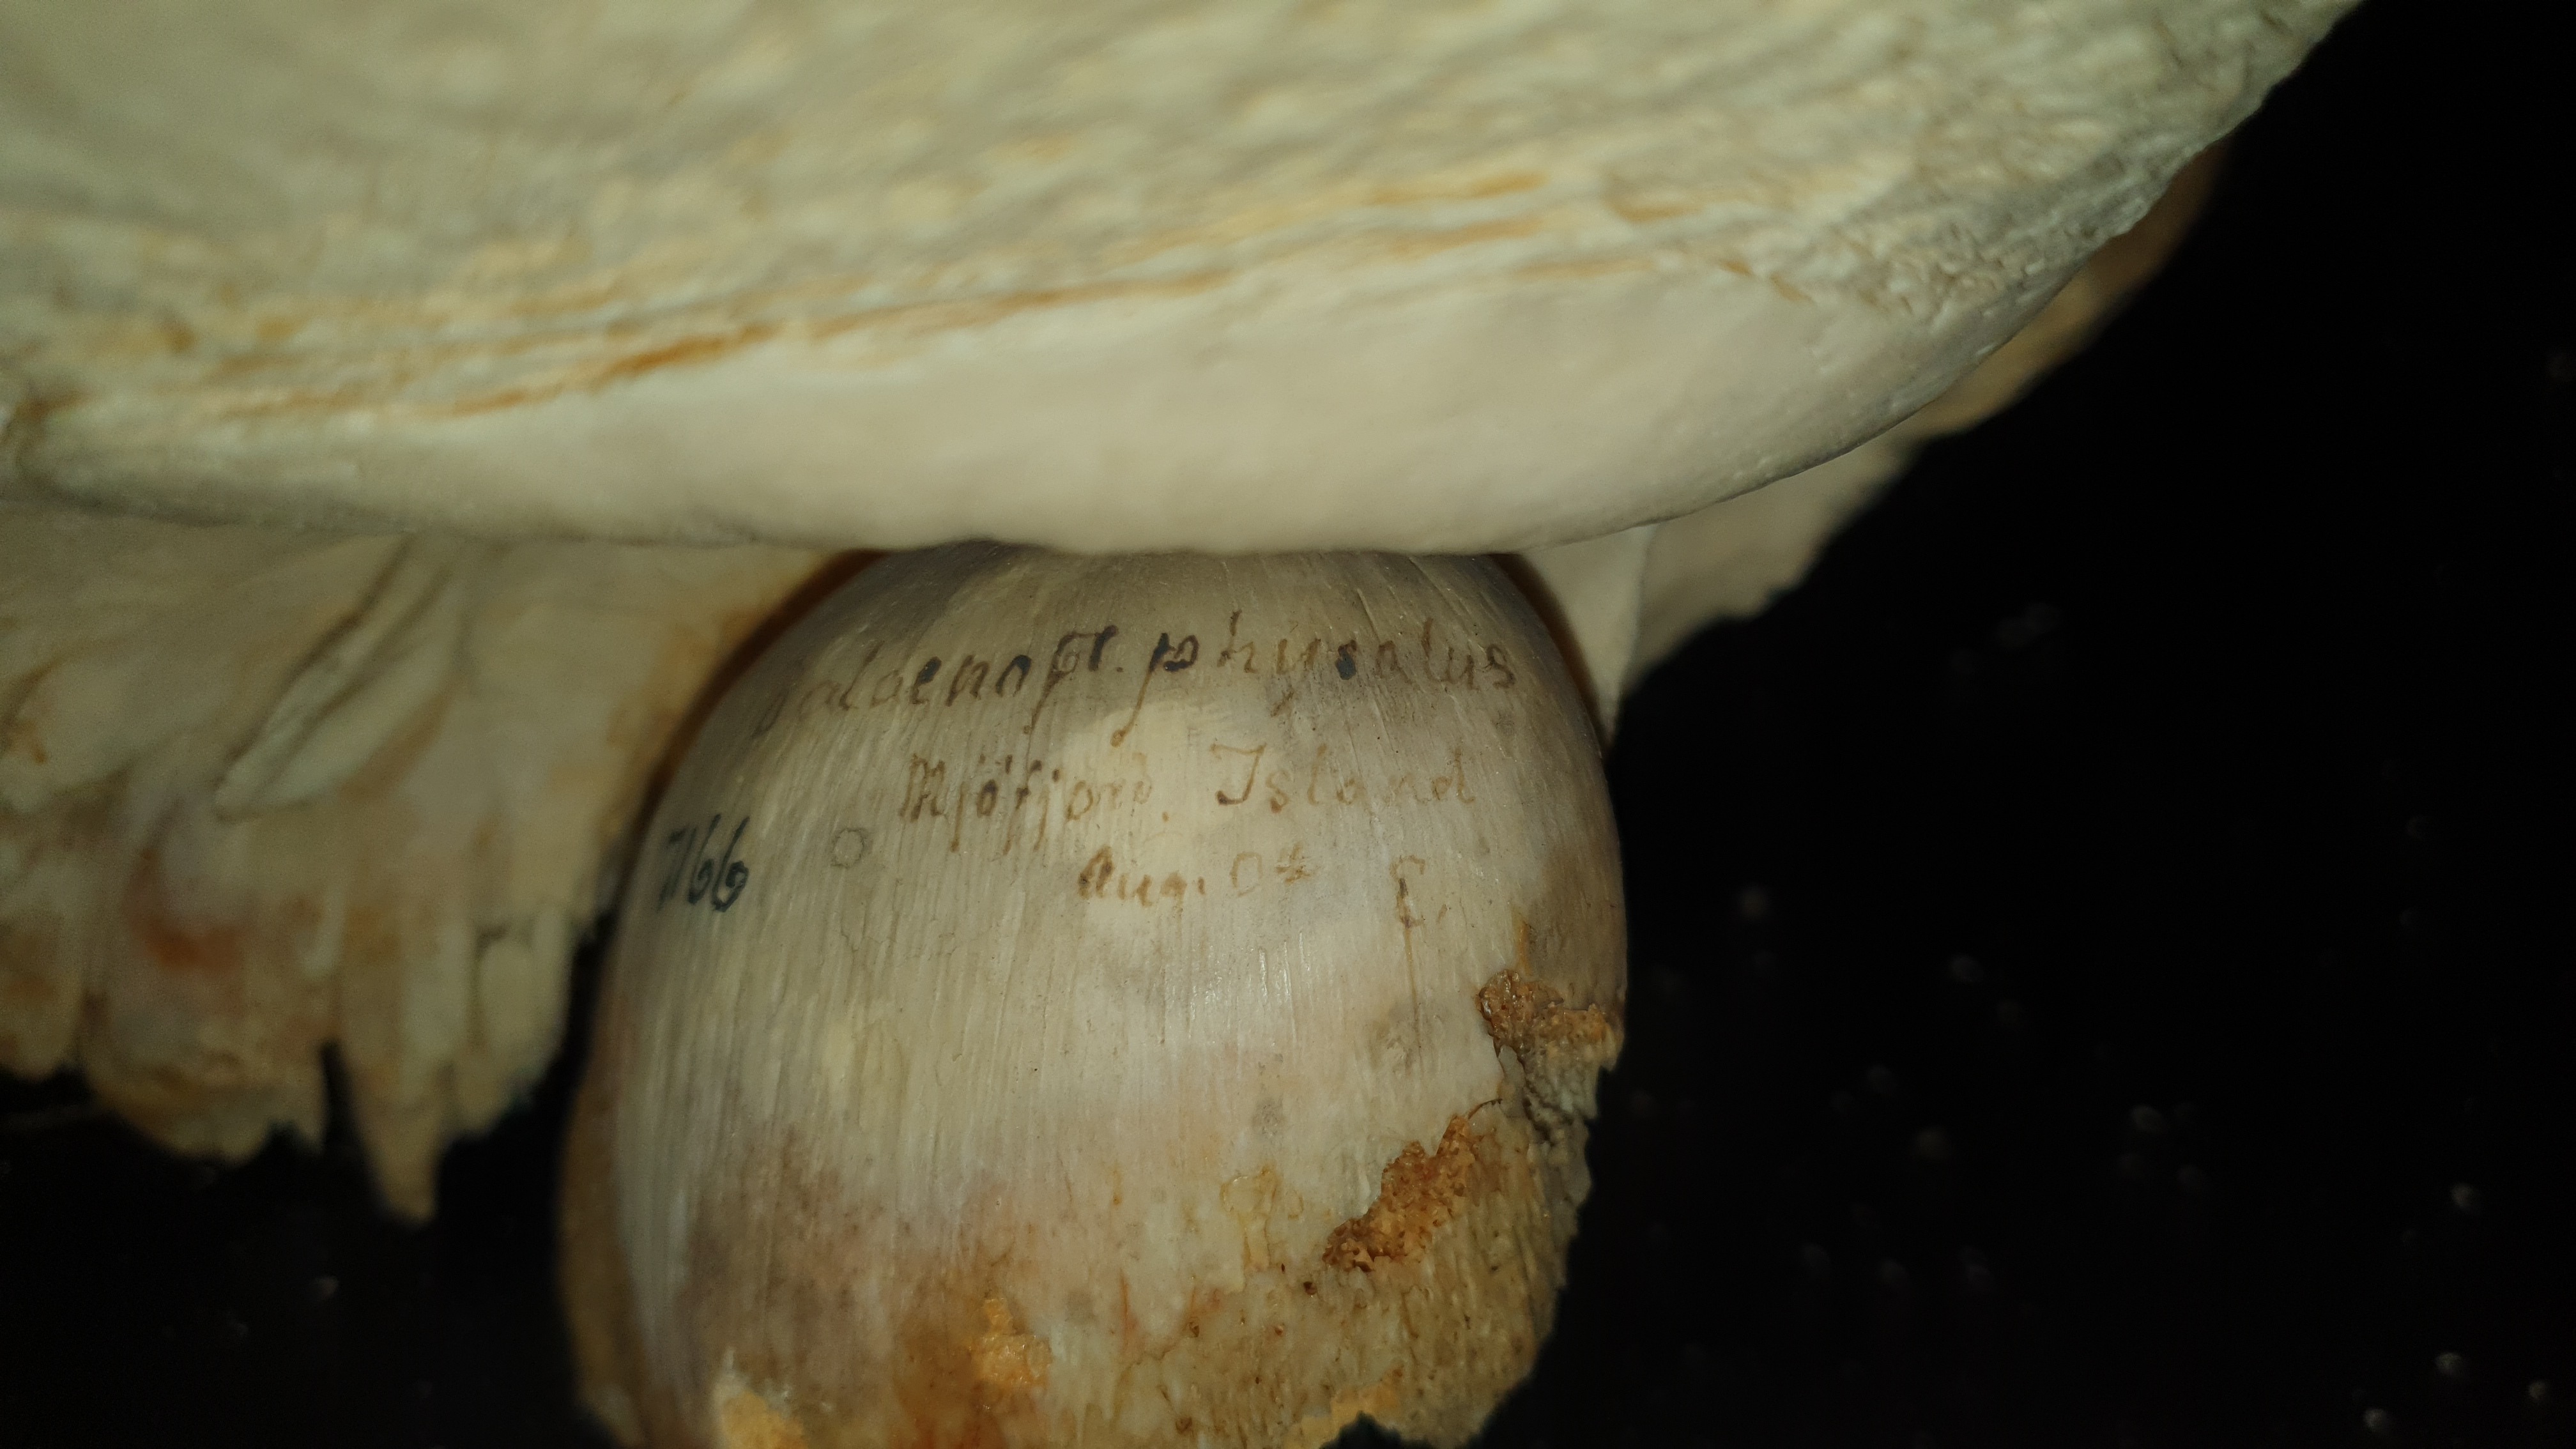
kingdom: Animalia
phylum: Chordata
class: Mammalia
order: Cetacea
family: Balaenopteridae
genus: Balaenoptera
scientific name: Balaenoptera physalus
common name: Fin whale
